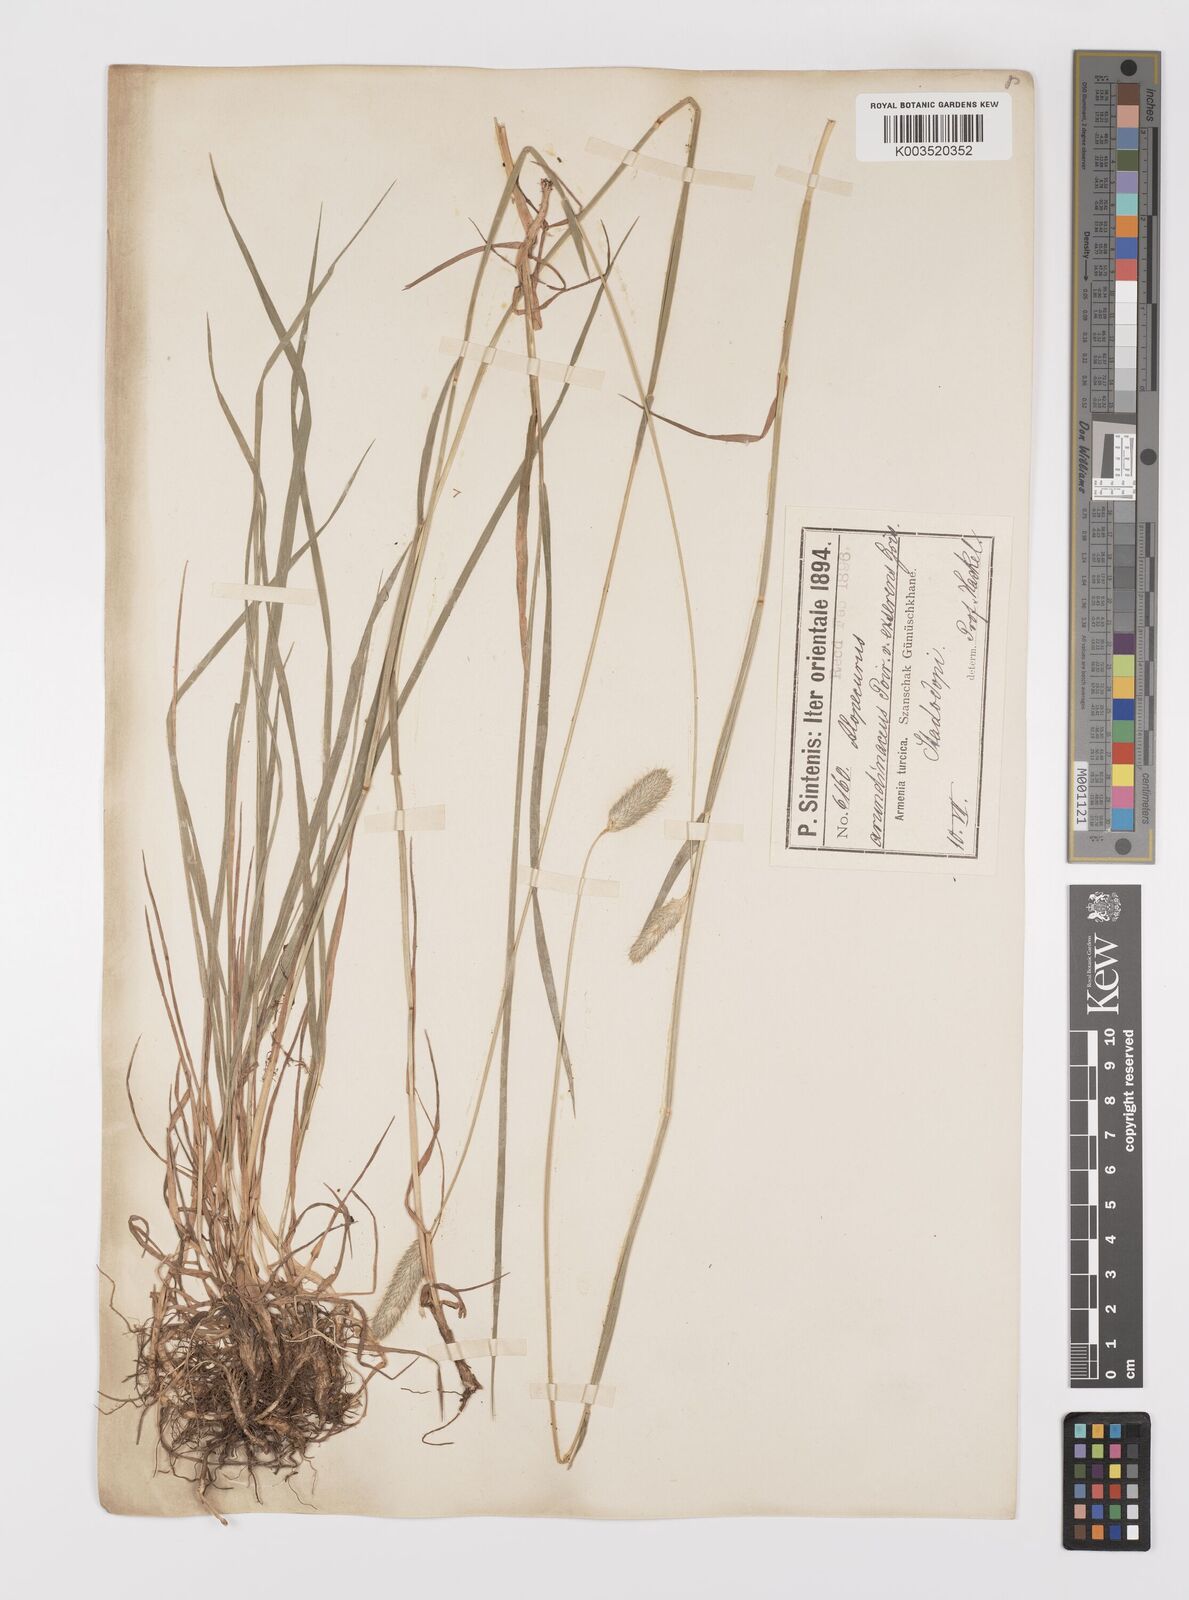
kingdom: Plantae
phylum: Tracheophyta
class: Liliopsida
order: Poales
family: Poaceae
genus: Alopecurus
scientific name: Alopecurus arundinaceus
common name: Creeping meadow foxtail
